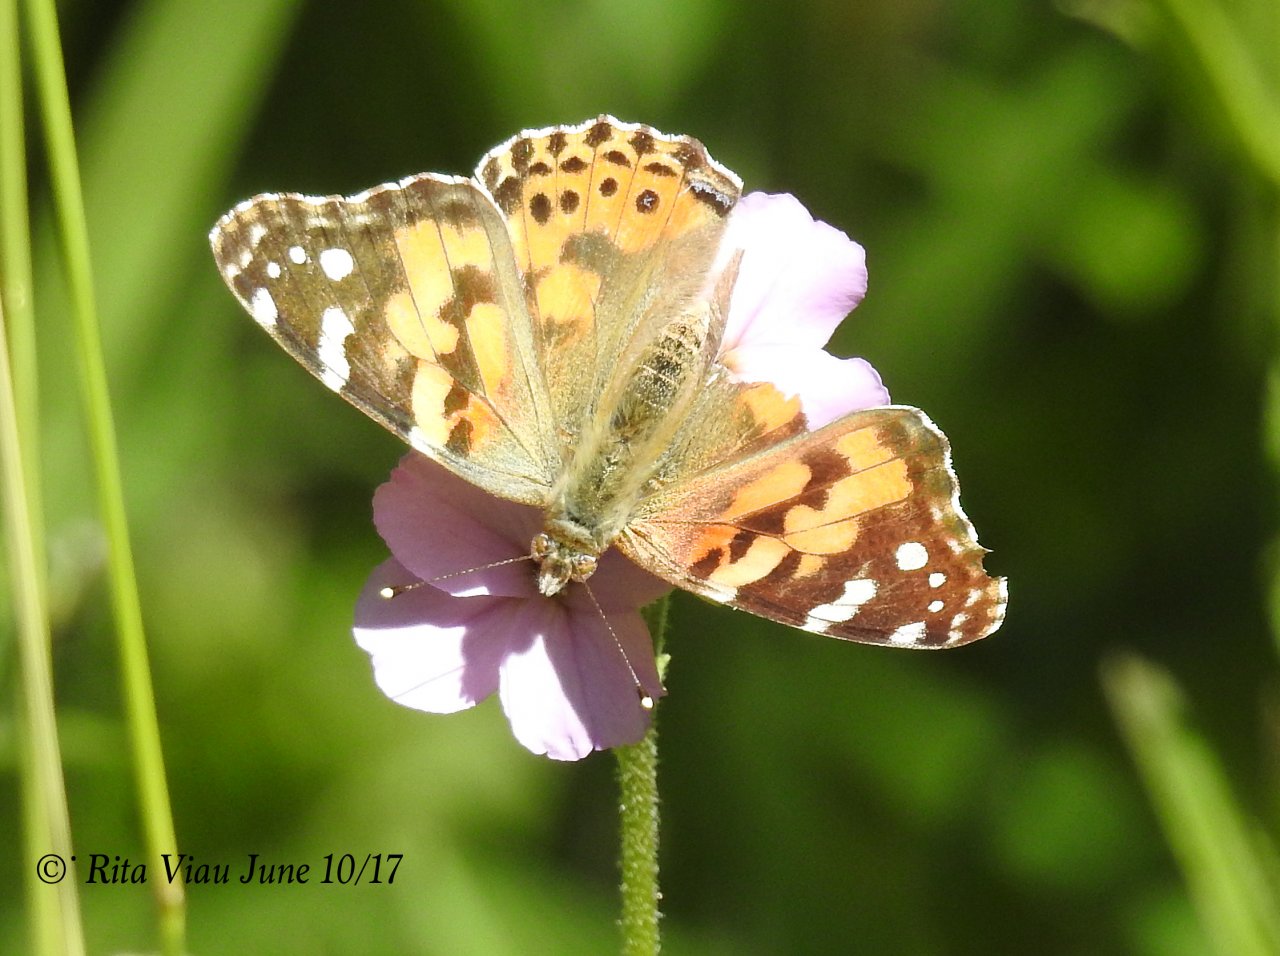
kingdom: Animalia
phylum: Arthropoda
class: Insecta
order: Lepidoptera
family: Nymphalidae
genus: Vanessa
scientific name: Vanessa cardui
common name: Painted Lady
